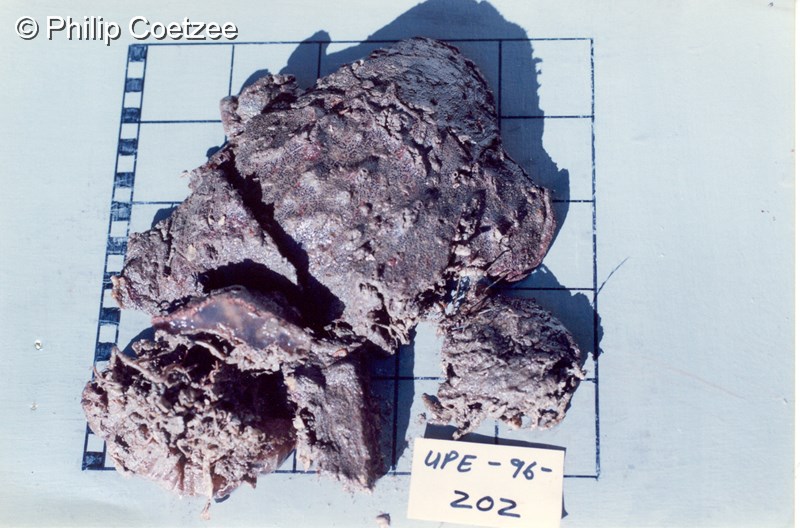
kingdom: Animalia
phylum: Chordata
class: Ascidiacea
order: Aplousobranchia
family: Polyclinidae
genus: Aplidiopsis
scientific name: Aplidiopsis
